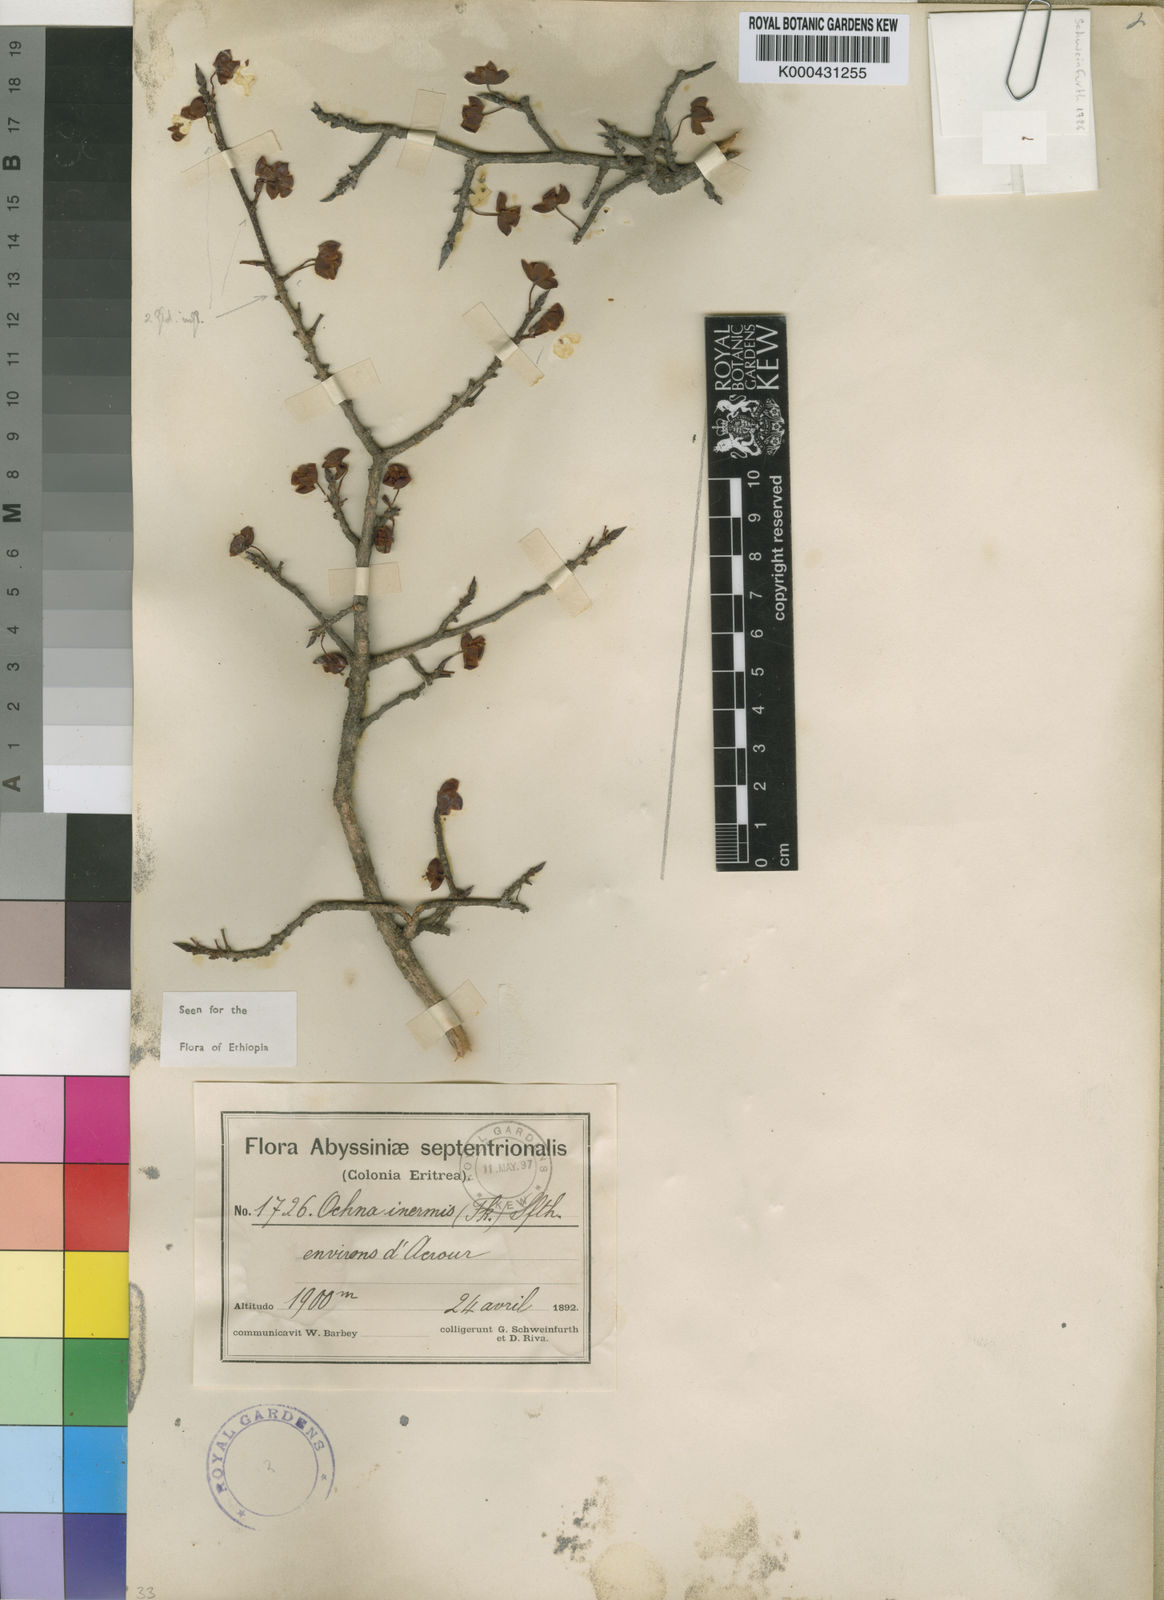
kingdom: Plantae
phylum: Tracheophyta
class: Magnoliopsida
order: Malpighiales
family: Ochnaceae
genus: Ochna
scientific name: Ochna inermis
